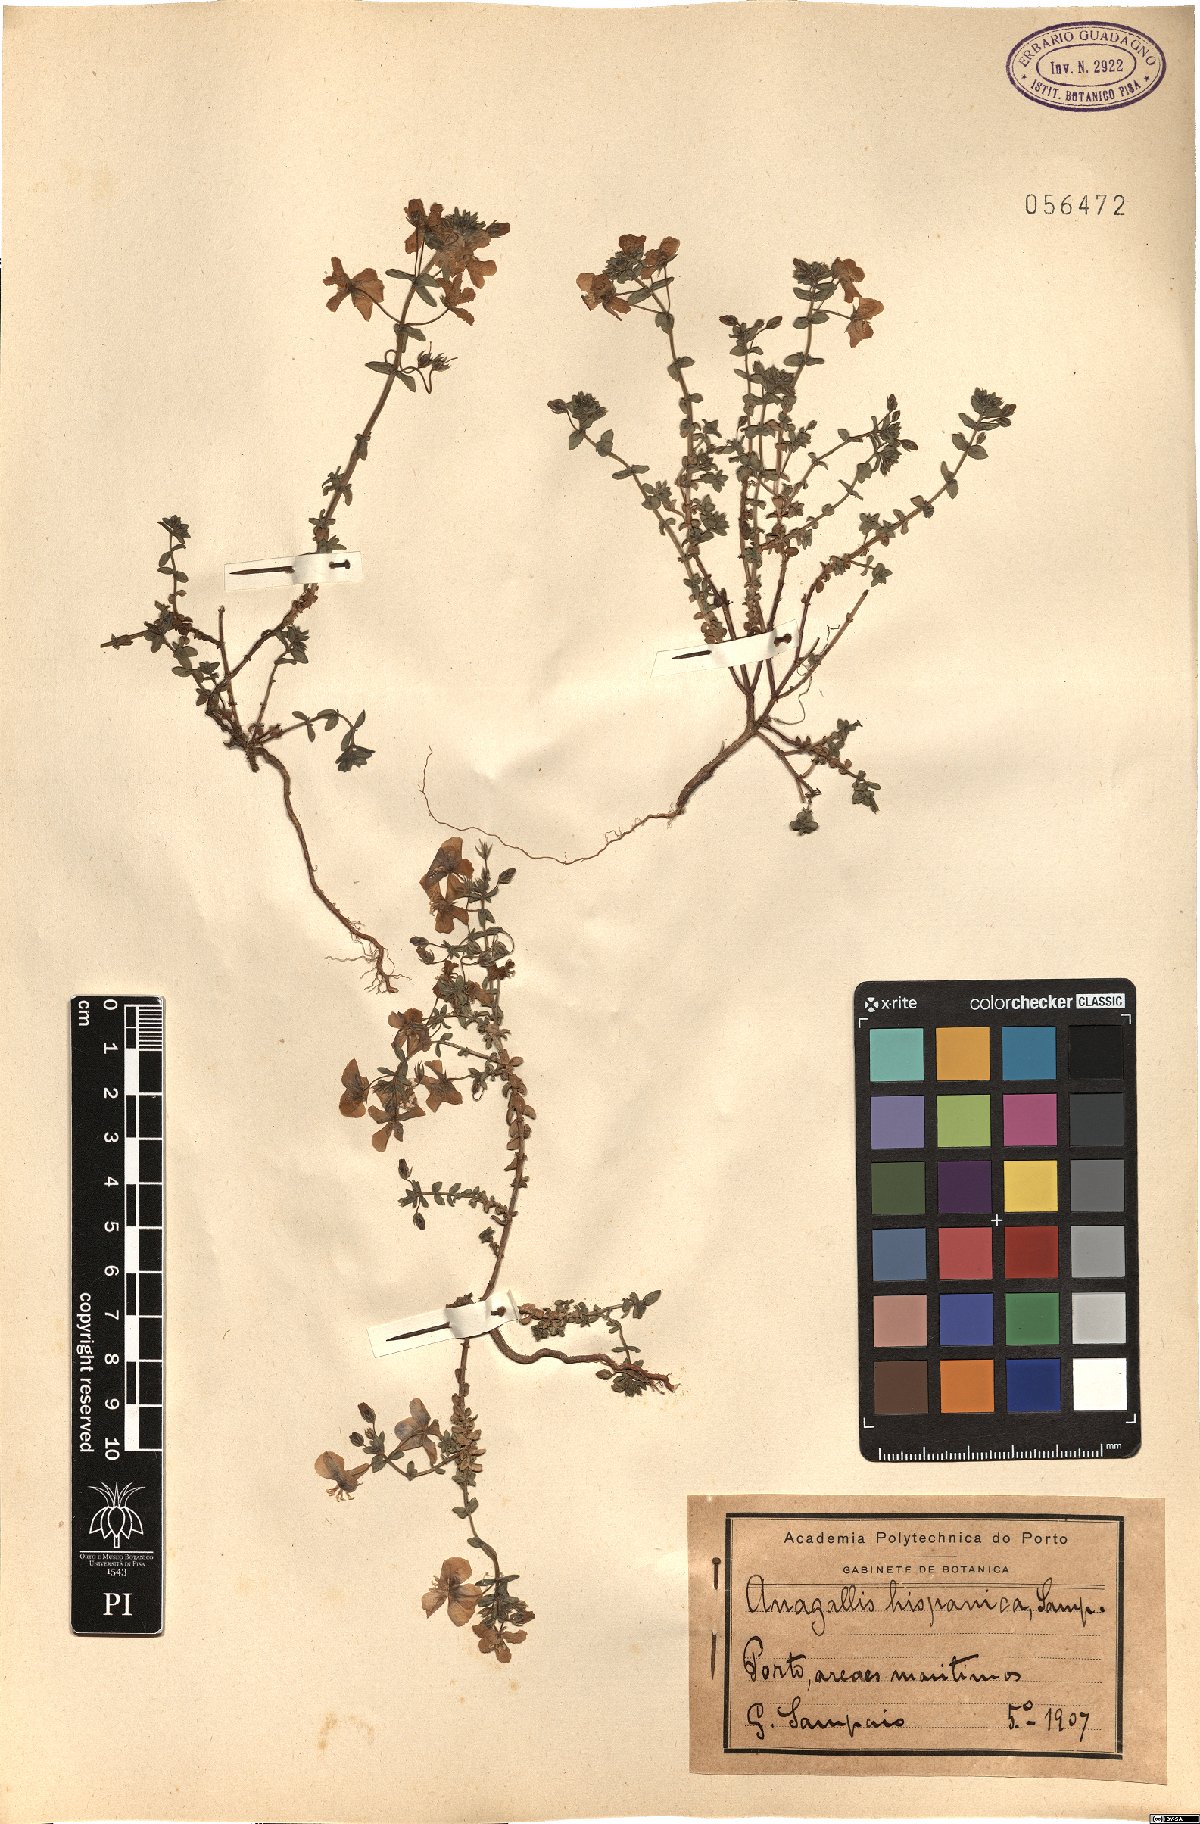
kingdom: Plantae
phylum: Tracheophyta
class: Magnoliopsida
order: Ericales
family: Primulaceae
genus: Lysimachia
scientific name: Lysimachia monelli
